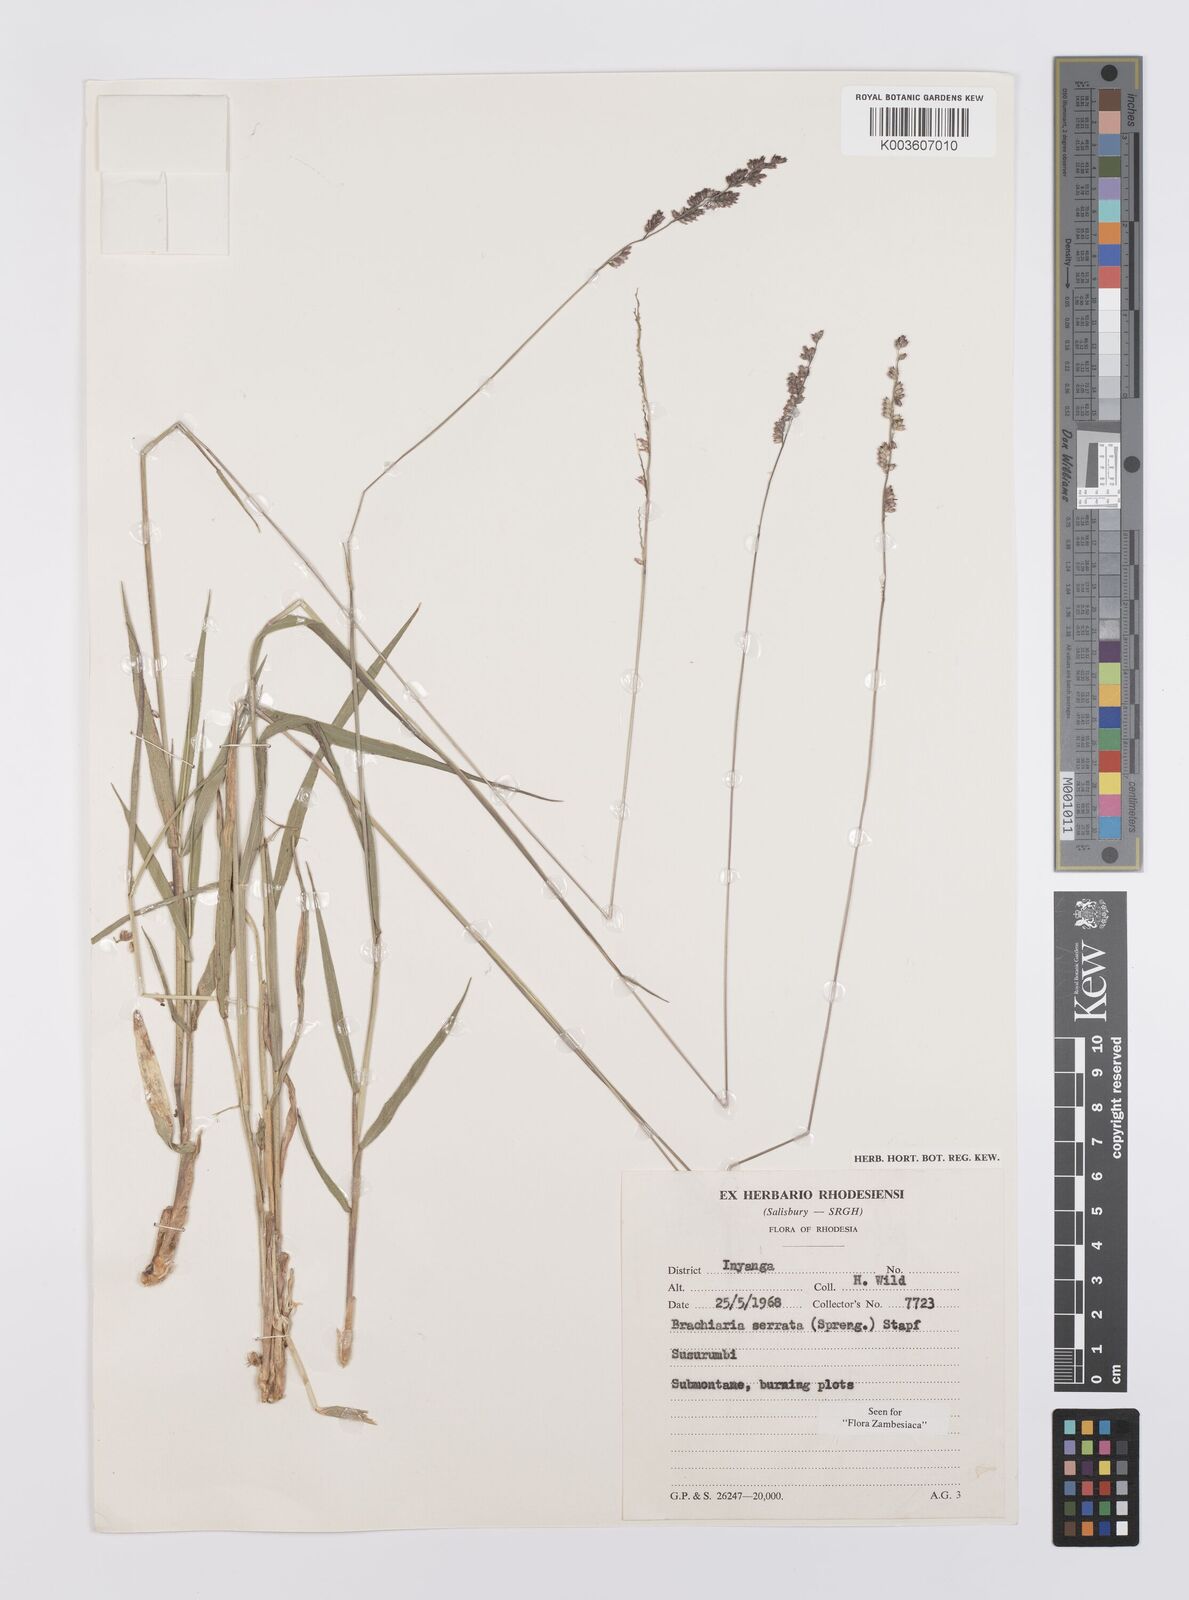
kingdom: Plantae
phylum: Tracheophyta
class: Liliopsida
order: Poales
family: Poaceae
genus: Urochloa
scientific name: Urochloa serrata
